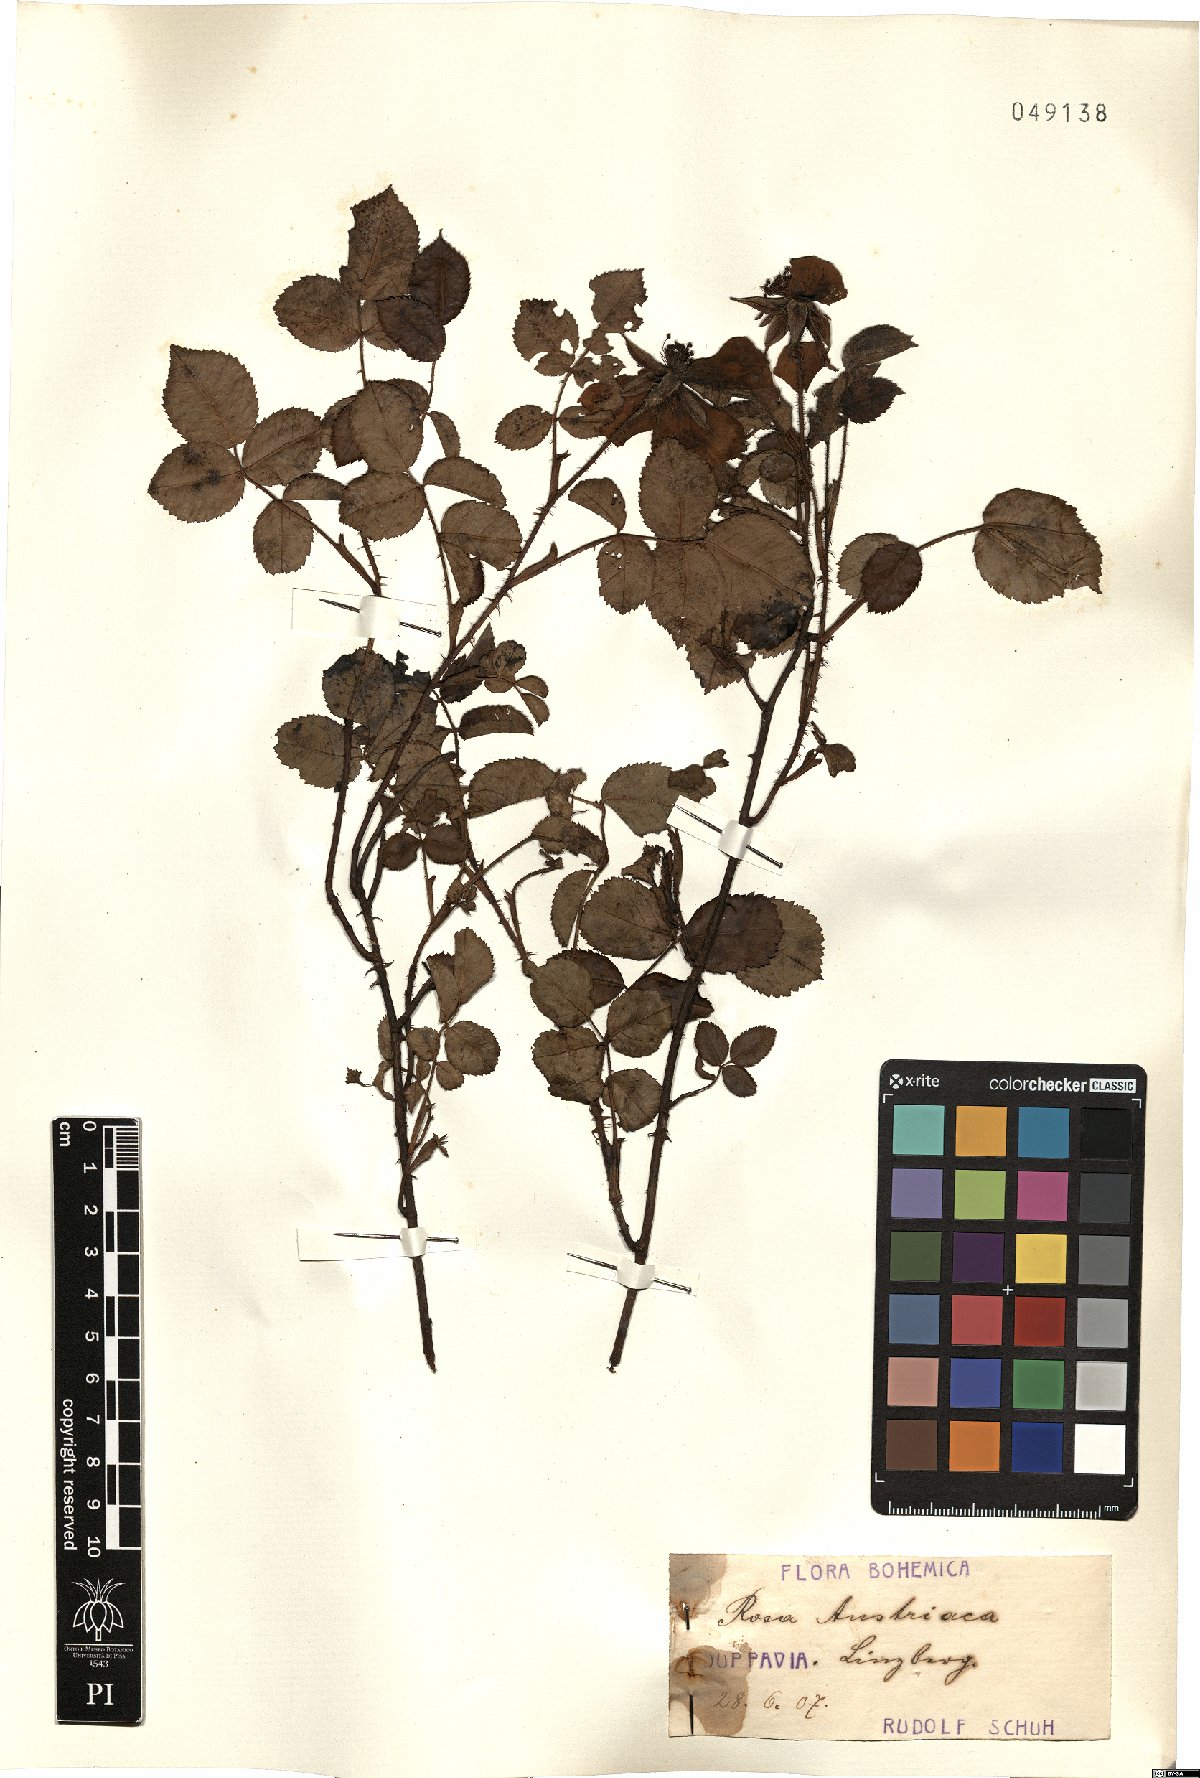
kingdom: Plantae
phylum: Tracheophyta
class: Magnoliopsida
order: Rosales
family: Rosaceae
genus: Rosa
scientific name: Rosa gallica
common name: French rose
